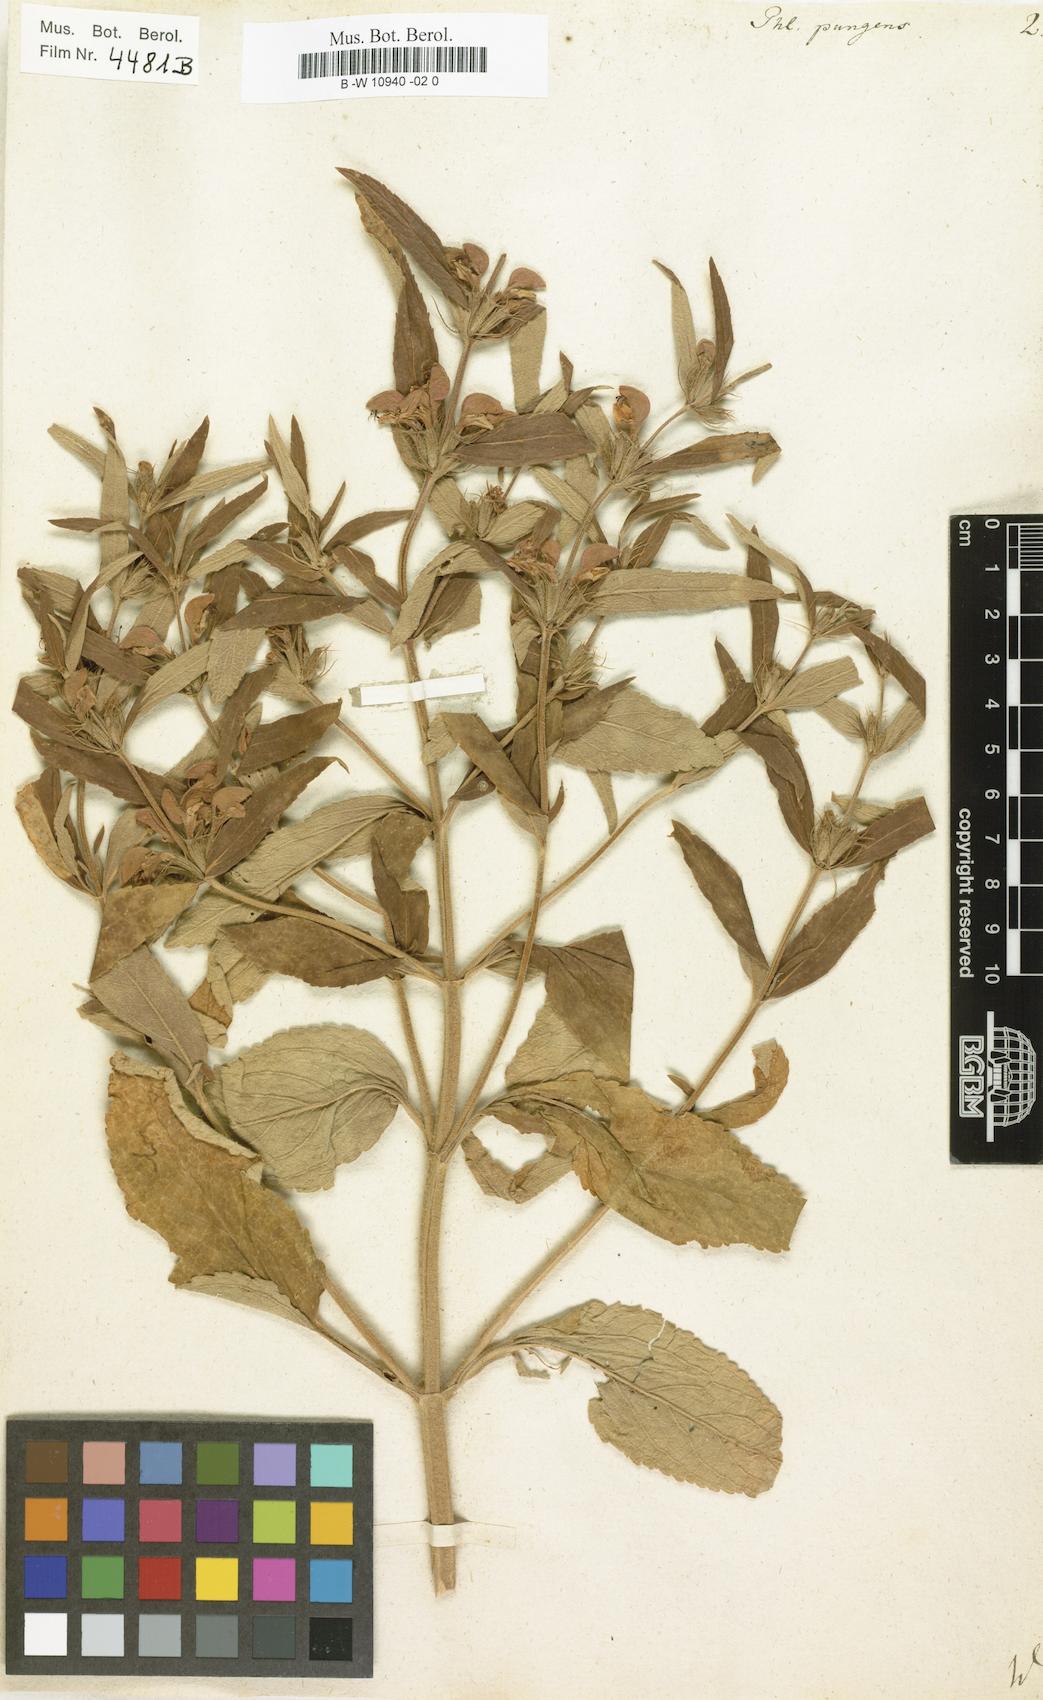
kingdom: Plantae
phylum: Tracheophyta
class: Magnoliopsida
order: Lamiales
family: Lamiaceae
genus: Phlomis
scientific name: Phlomis herba-venti
